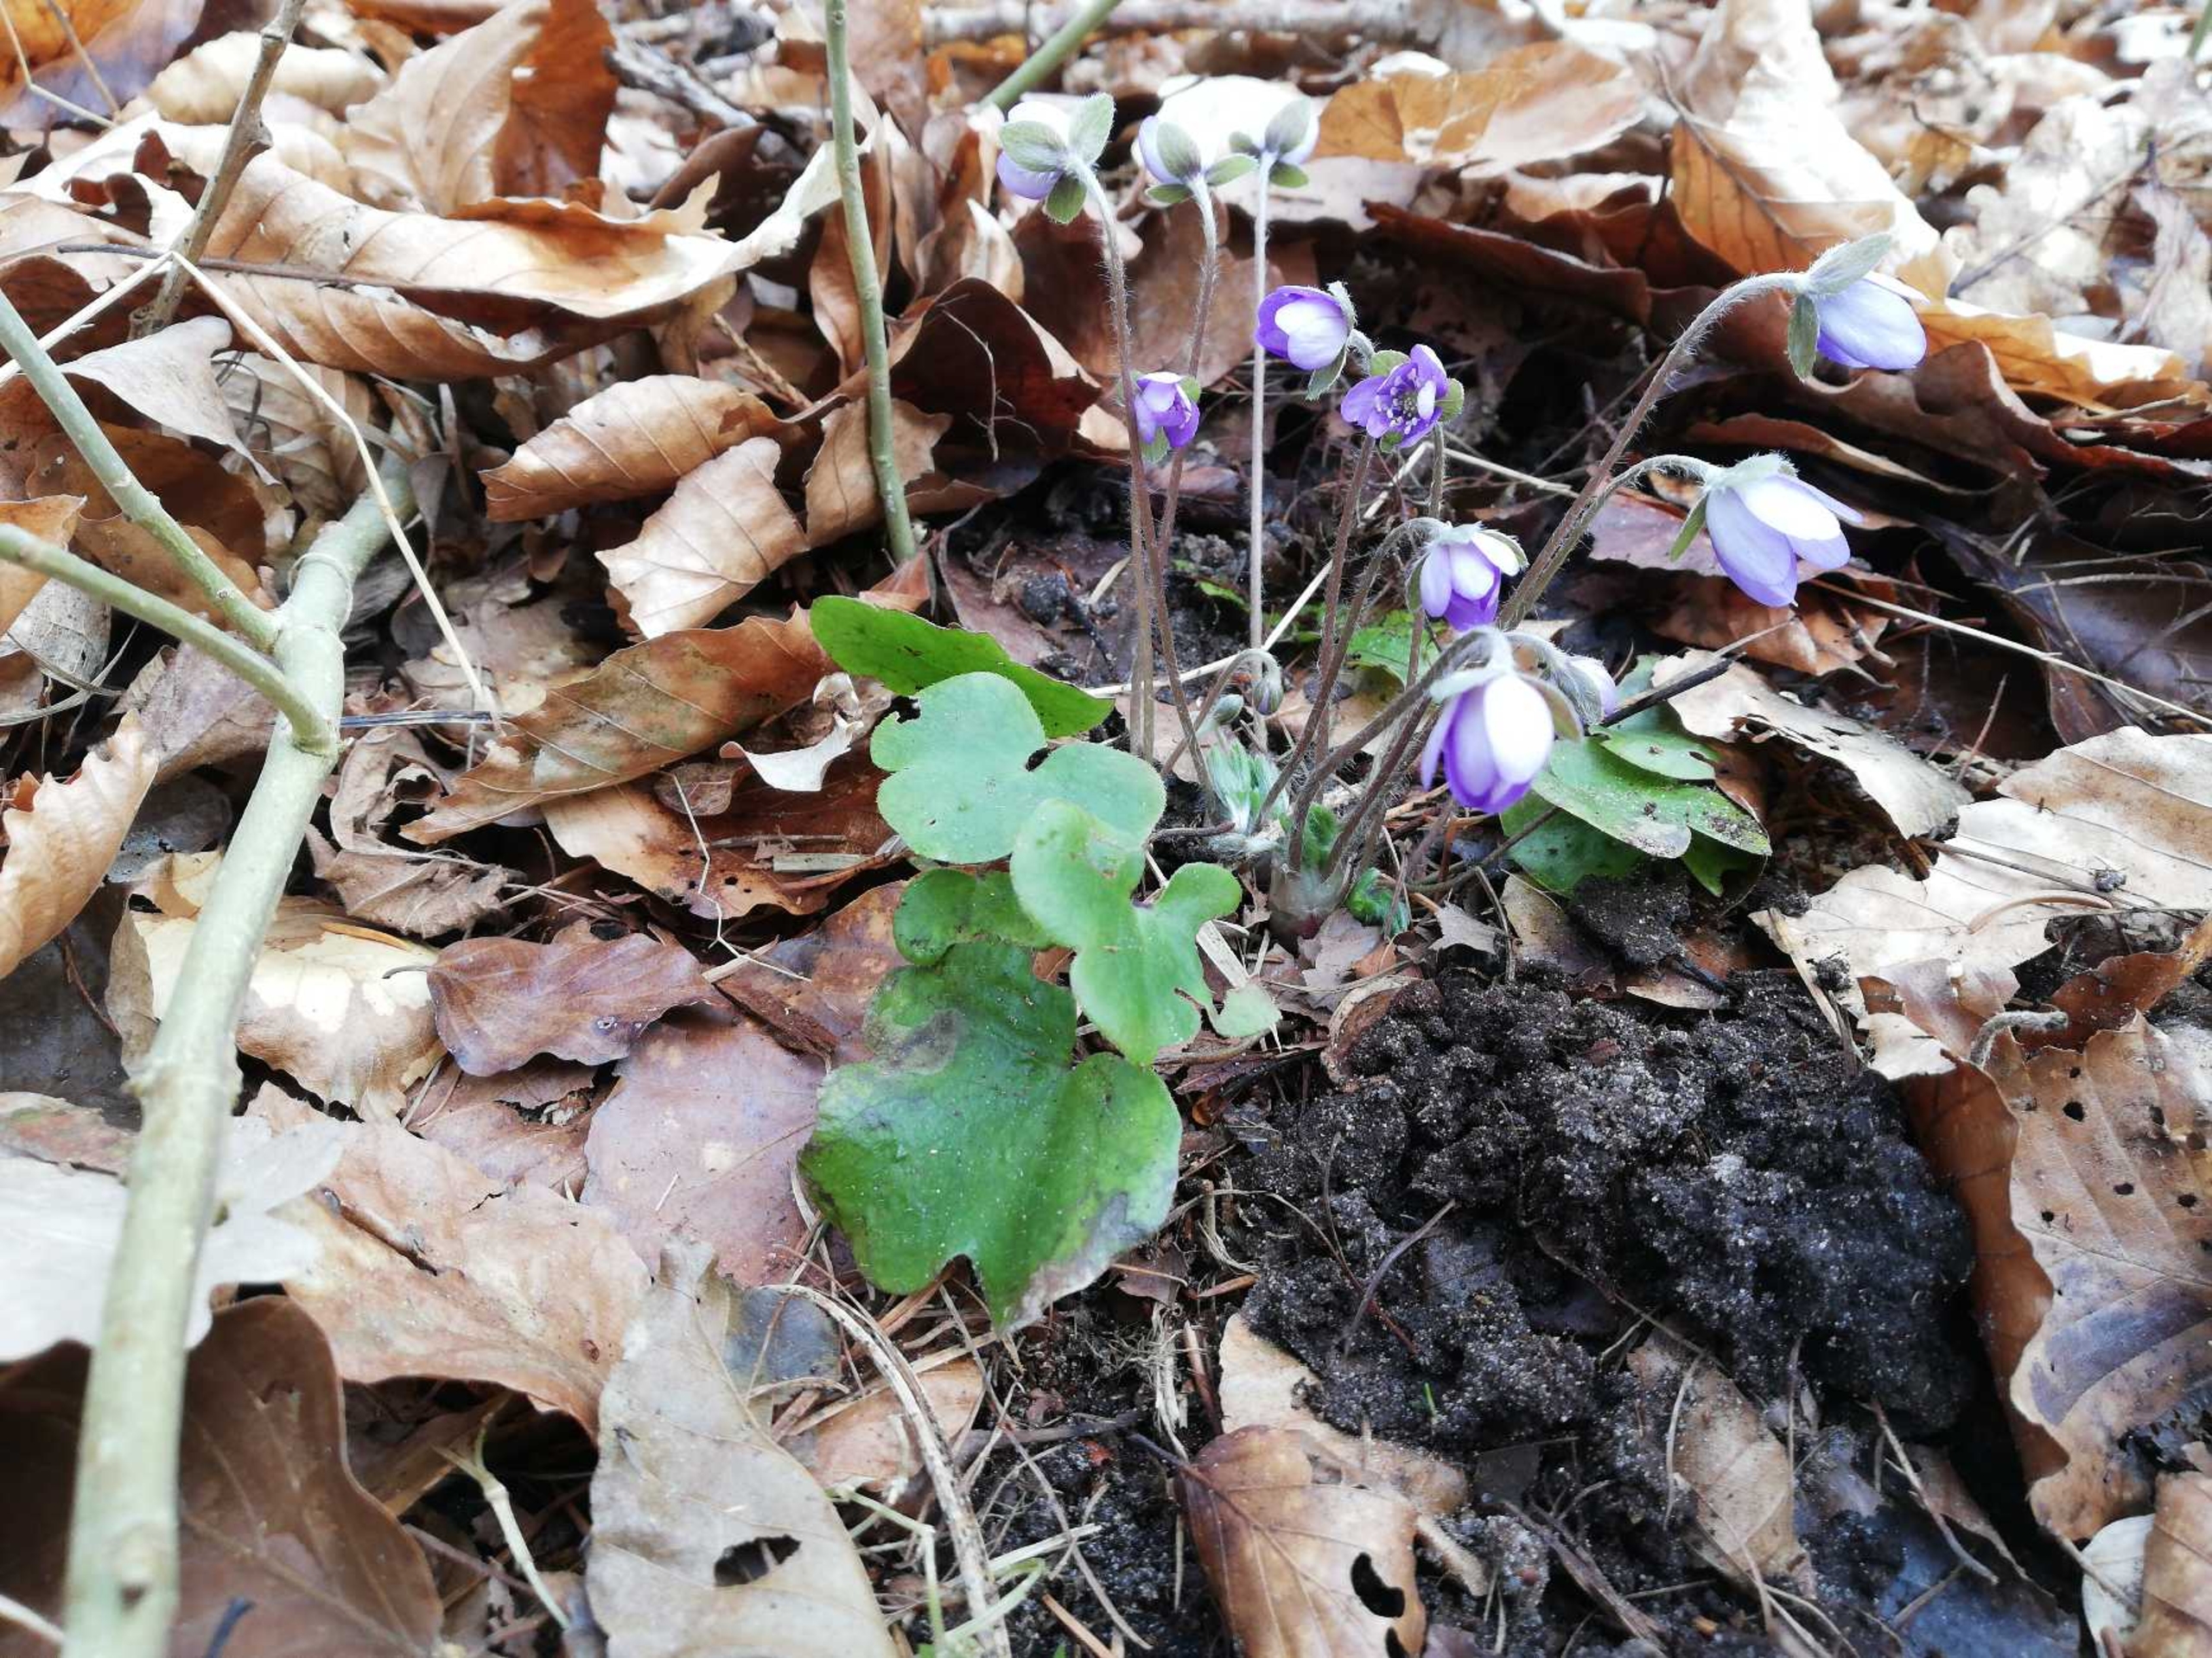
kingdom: Plantae
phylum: Tracheophyta
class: Magnoliopsida
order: Ranunculales
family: Ranunculaceae
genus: Hepatica
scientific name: Hepatica nobilis
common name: Blå anemone
